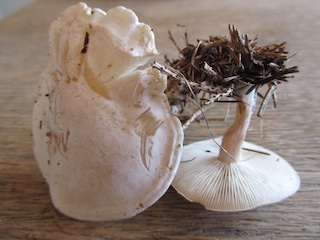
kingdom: Fungi
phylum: Basidiomycota
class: Agaricomycetes
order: Agaricales
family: Tricholomataceae
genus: Clitocybe
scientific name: Clitocybe phyllophila
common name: løv-tragthat
